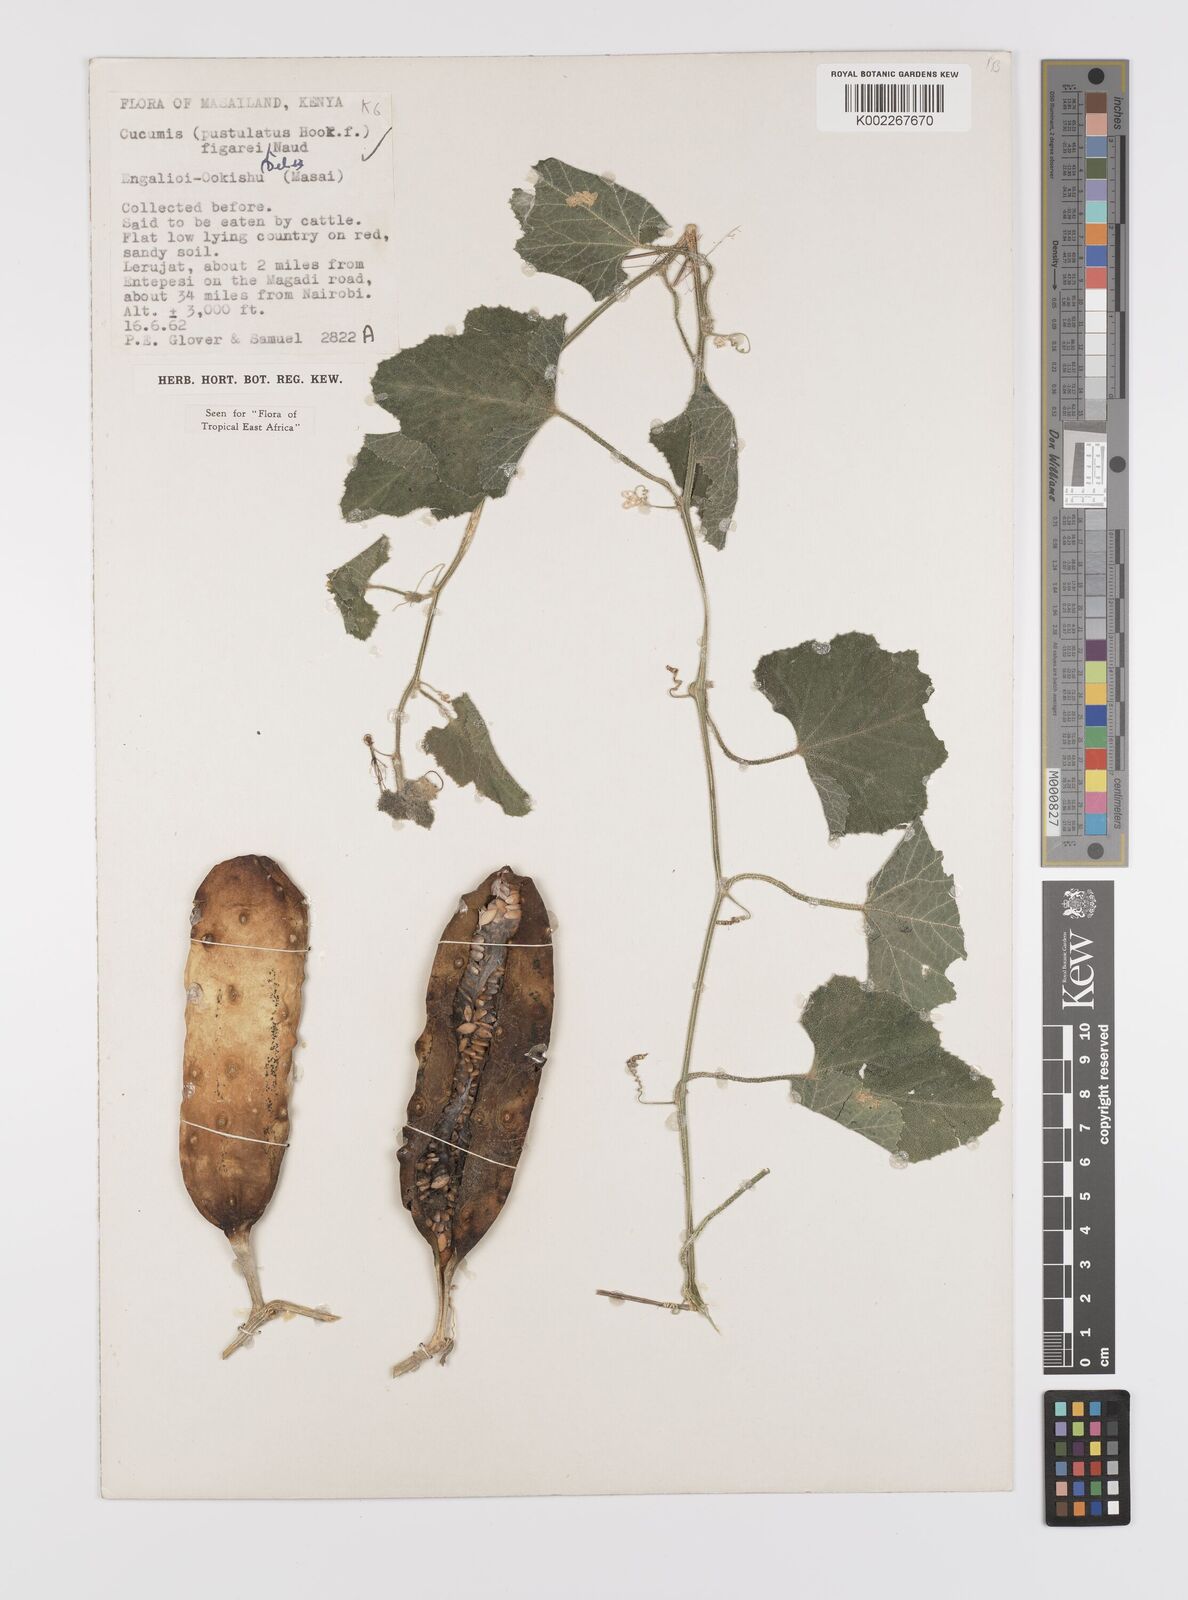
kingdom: Plantae
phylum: Tracheophyta
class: Magnoliopsida
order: Cucurbitales
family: Cucurbitaceae
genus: Cucumis
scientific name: Cucumis
